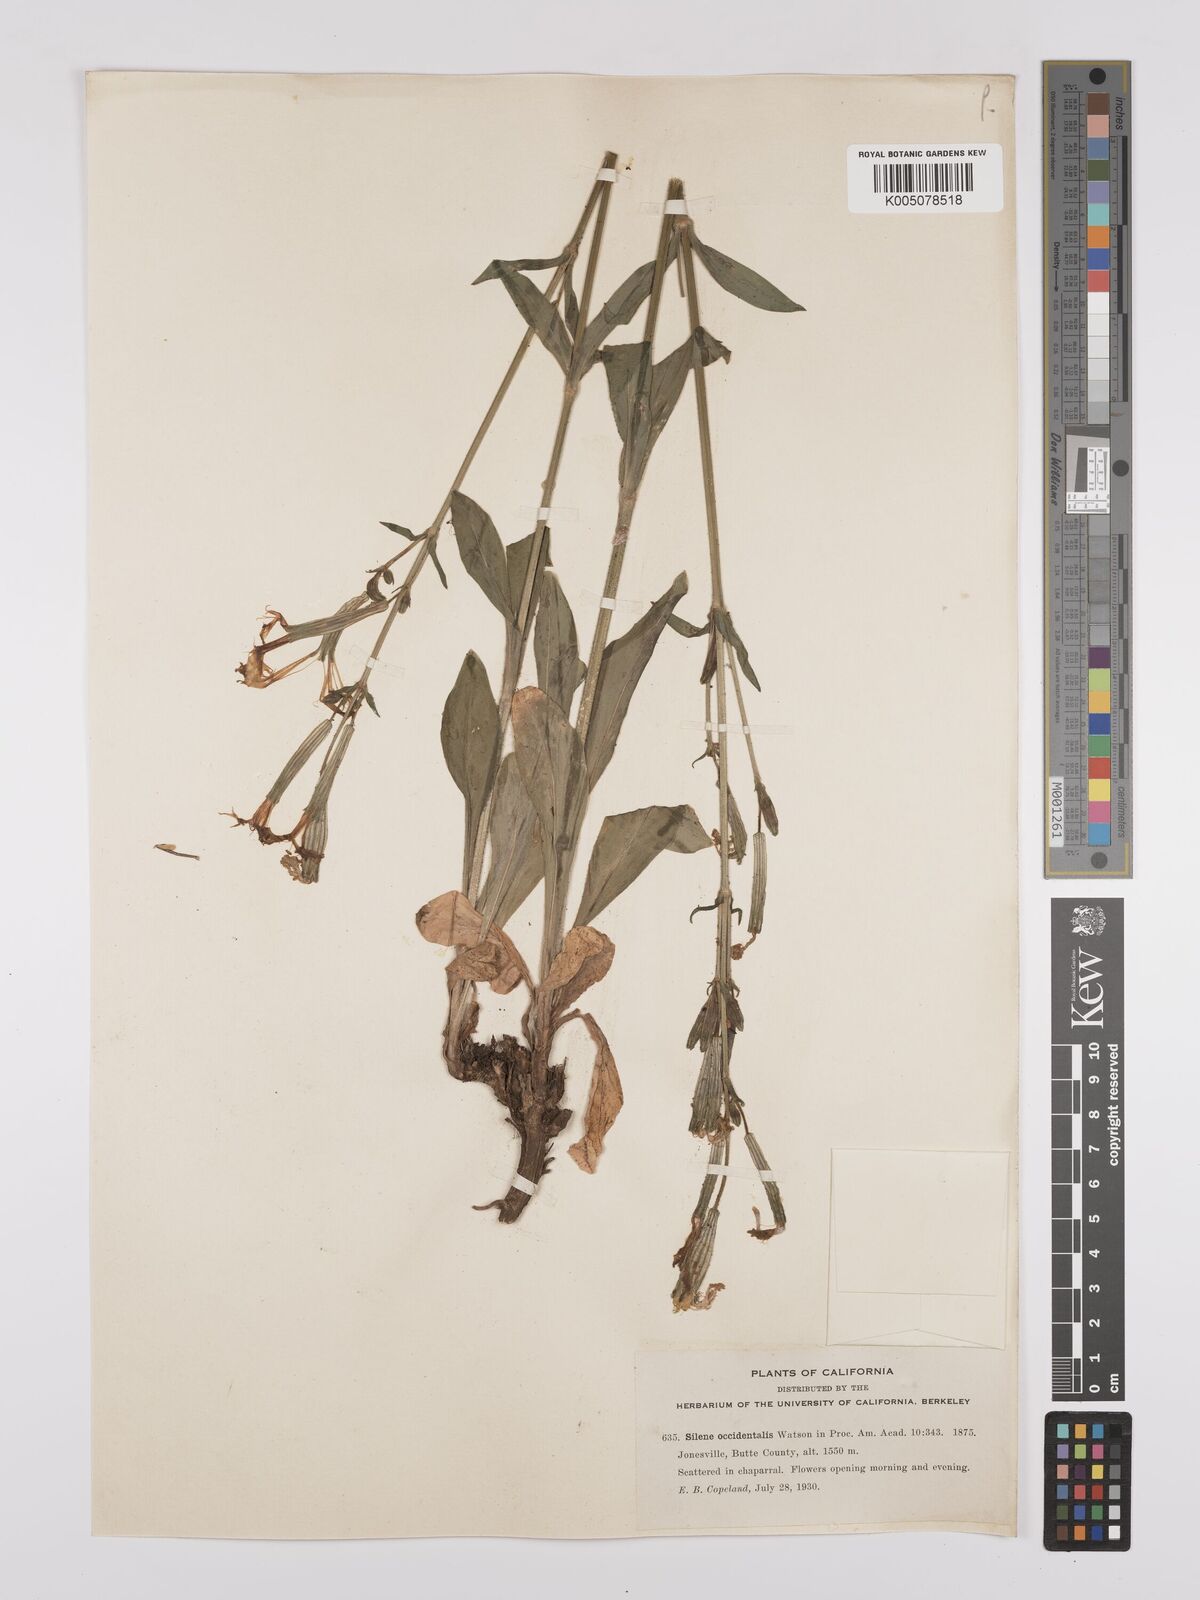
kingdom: Plantae
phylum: Tracheophyta
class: Magnoliopsida
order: Caryophyllales
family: Caryophyllaceae
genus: Silene
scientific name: Silene occidentalis
